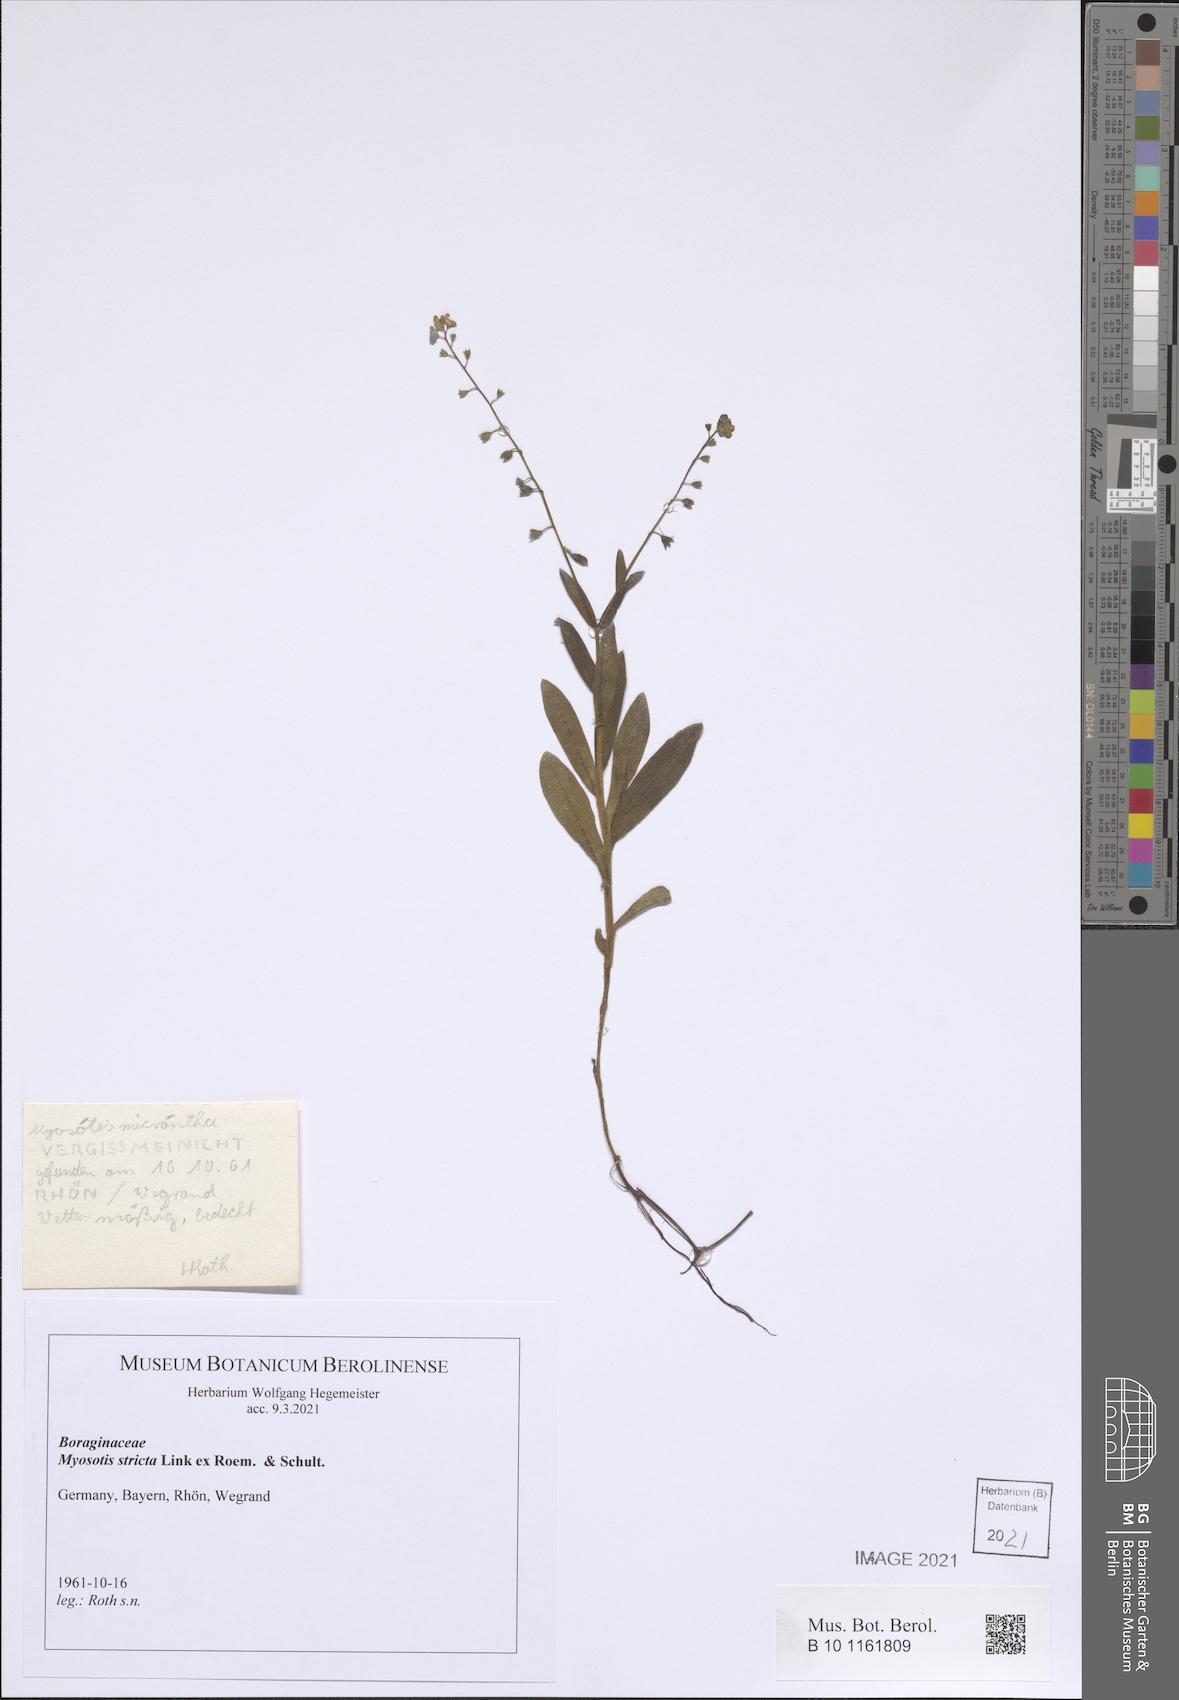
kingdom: Plantae
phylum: Tracheophyta
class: Magnoliopsida
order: Boraginales
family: Boraginaceae
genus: Myosotis
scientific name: Myosotis stricta
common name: Strict forget-me-not
